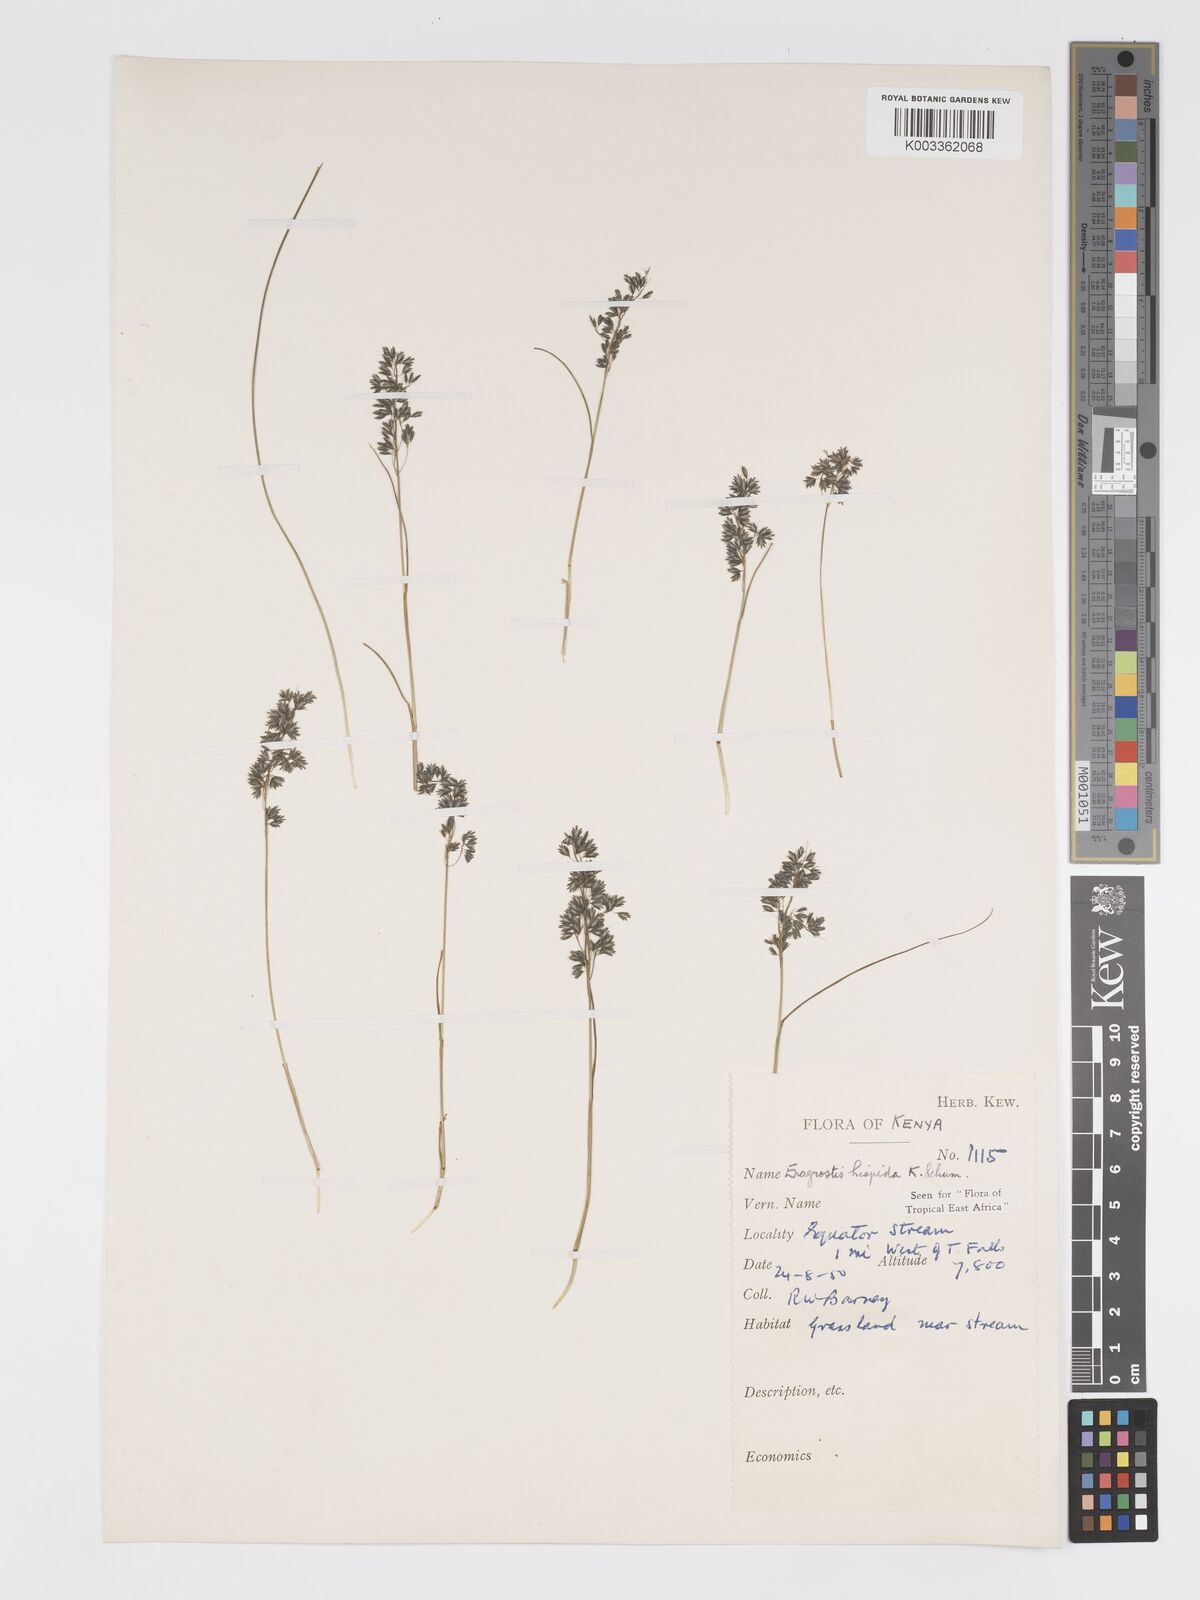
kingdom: Plantae
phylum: Tracheophyta
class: Liliopsida
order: Poales
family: Poaceae
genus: Eragrostis
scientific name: Eragrostis hispida
